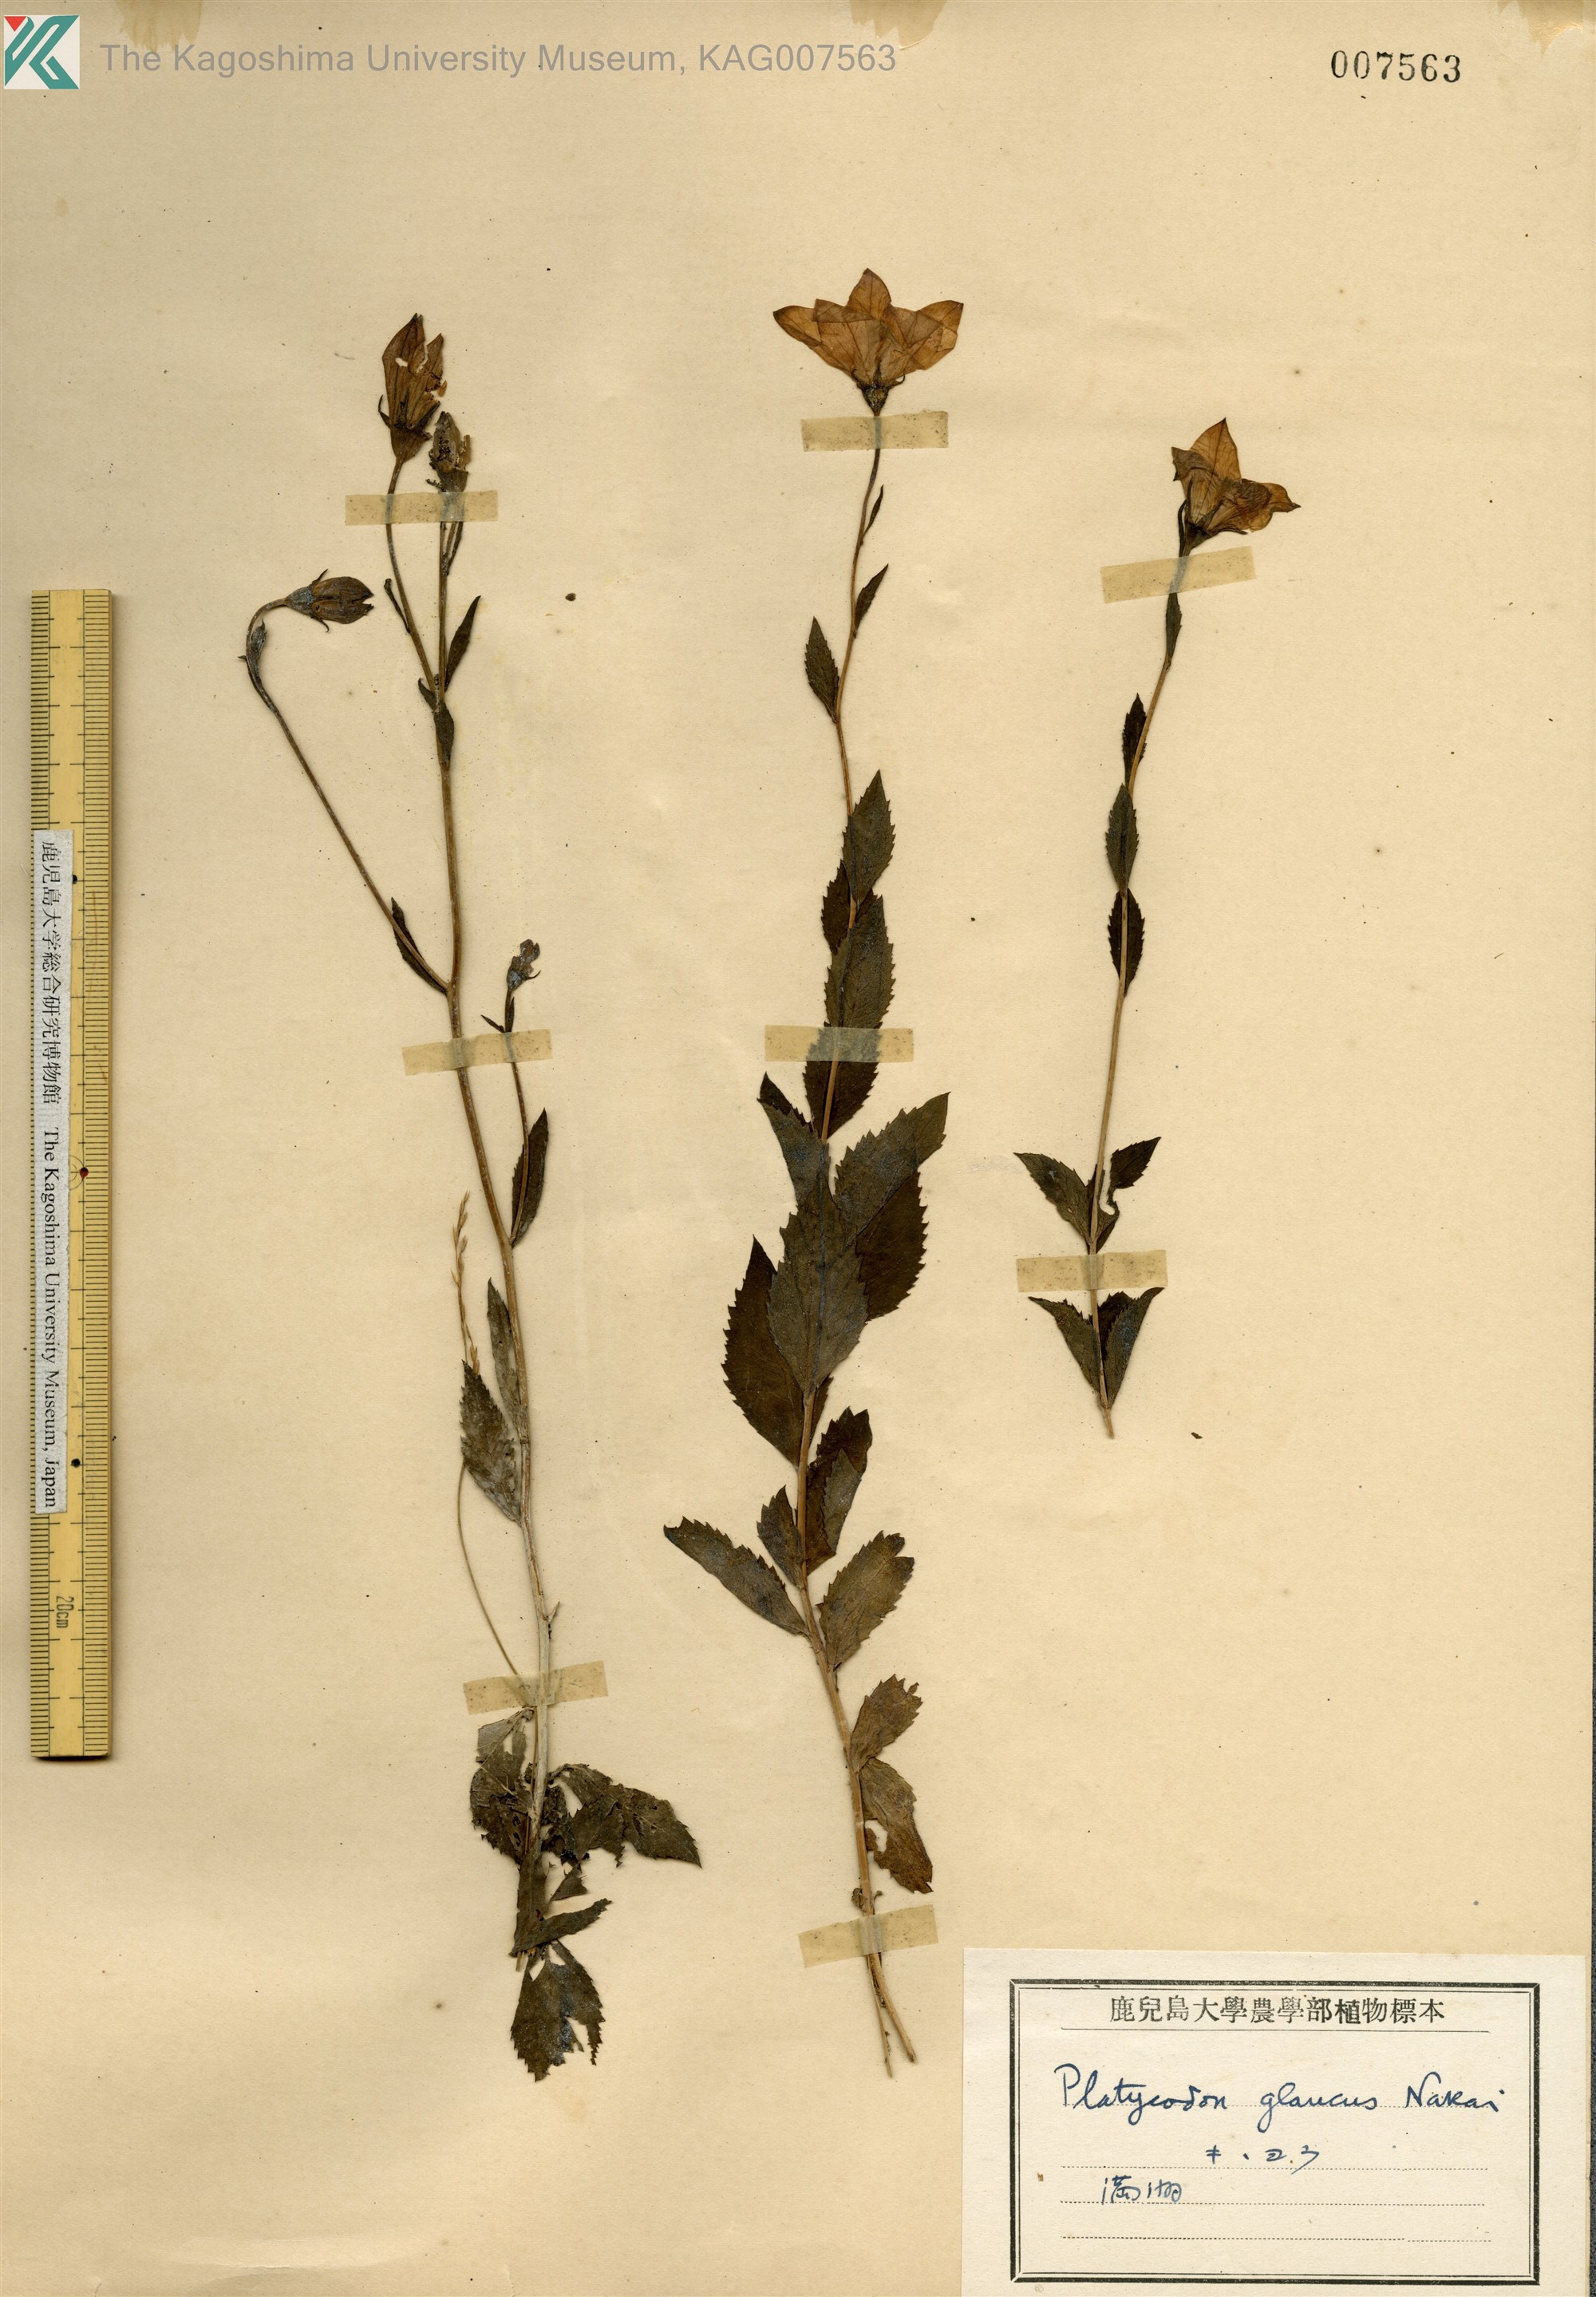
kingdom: Plantae
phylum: Tracheophyta
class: Magnoliopsida
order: Asterales
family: Campanulaceae
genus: Platycodon
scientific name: Platycodon grandiflorus
